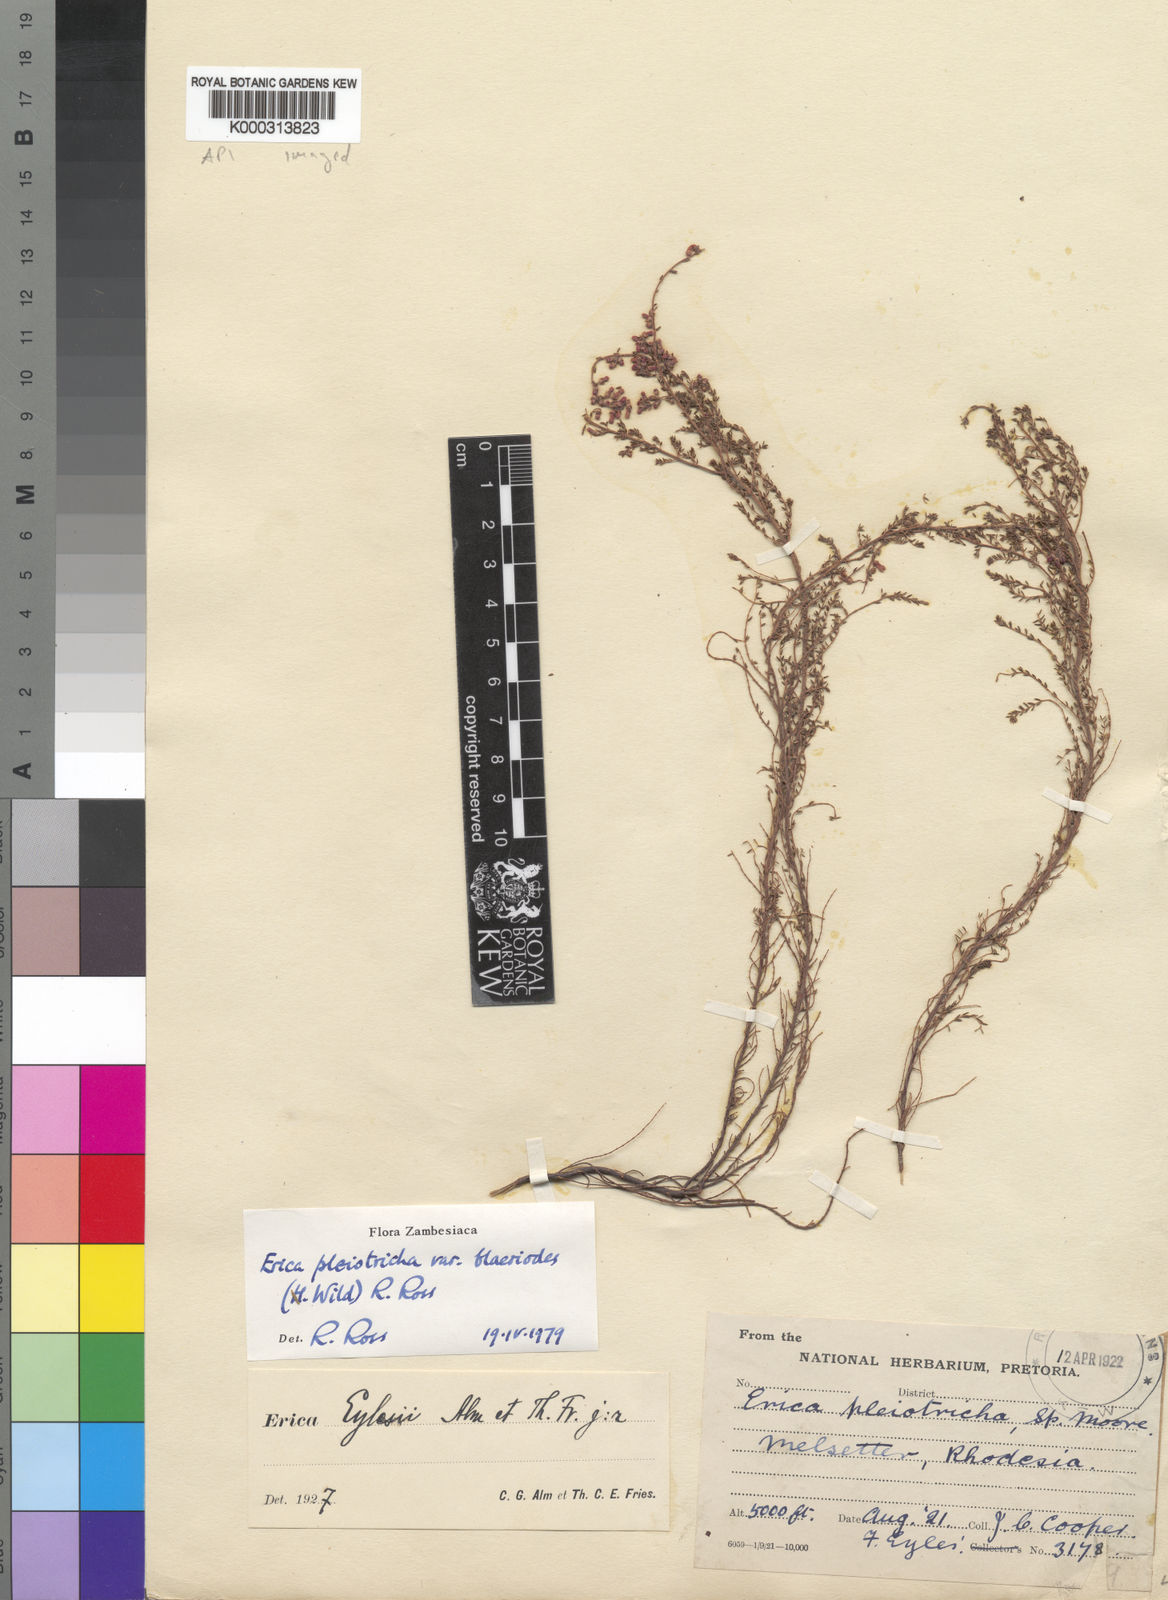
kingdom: Plantae
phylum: Tracheophyta
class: Magnoliopsida
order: Ericales
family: Ericaceae
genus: Erica
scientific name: Erica pleiotricha
